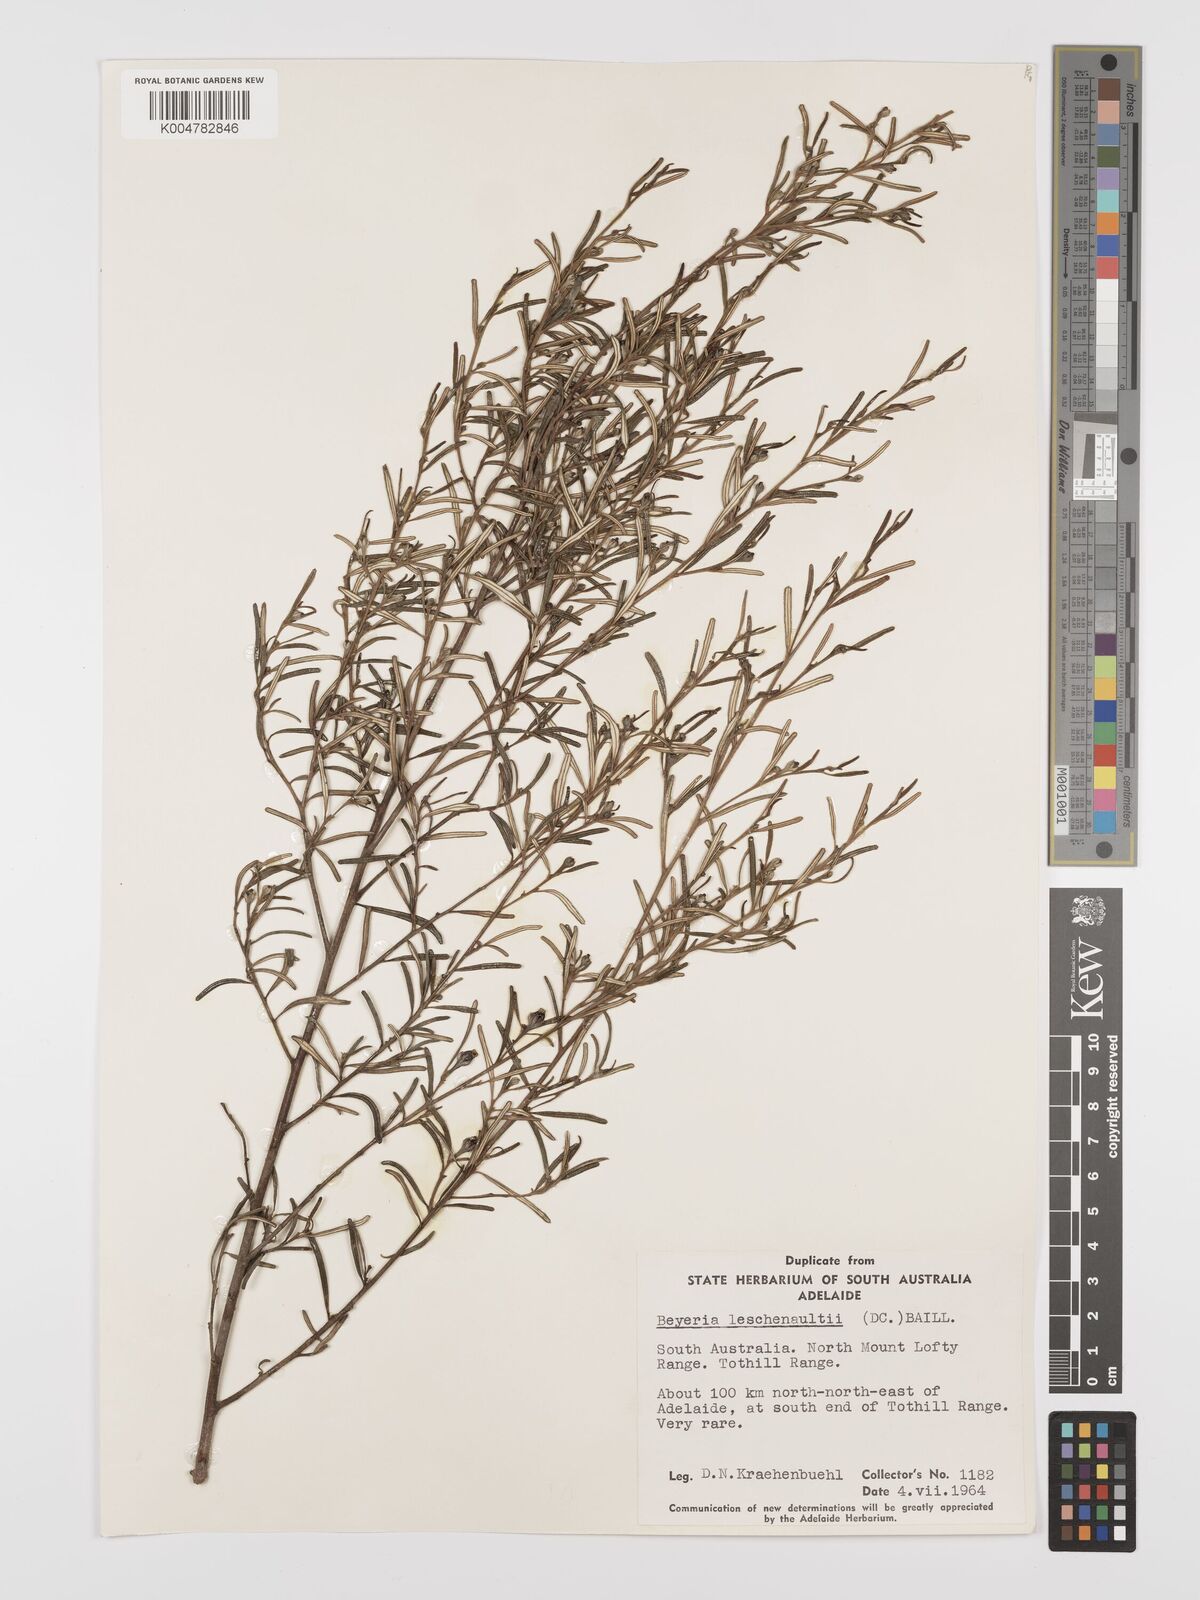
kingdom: Plantae
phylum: Tracheophyta
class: Magnoliopsida
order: Malpighiales
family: Euphorbiaceae
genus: Beyeria
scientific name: Beyeria lechenaultii
